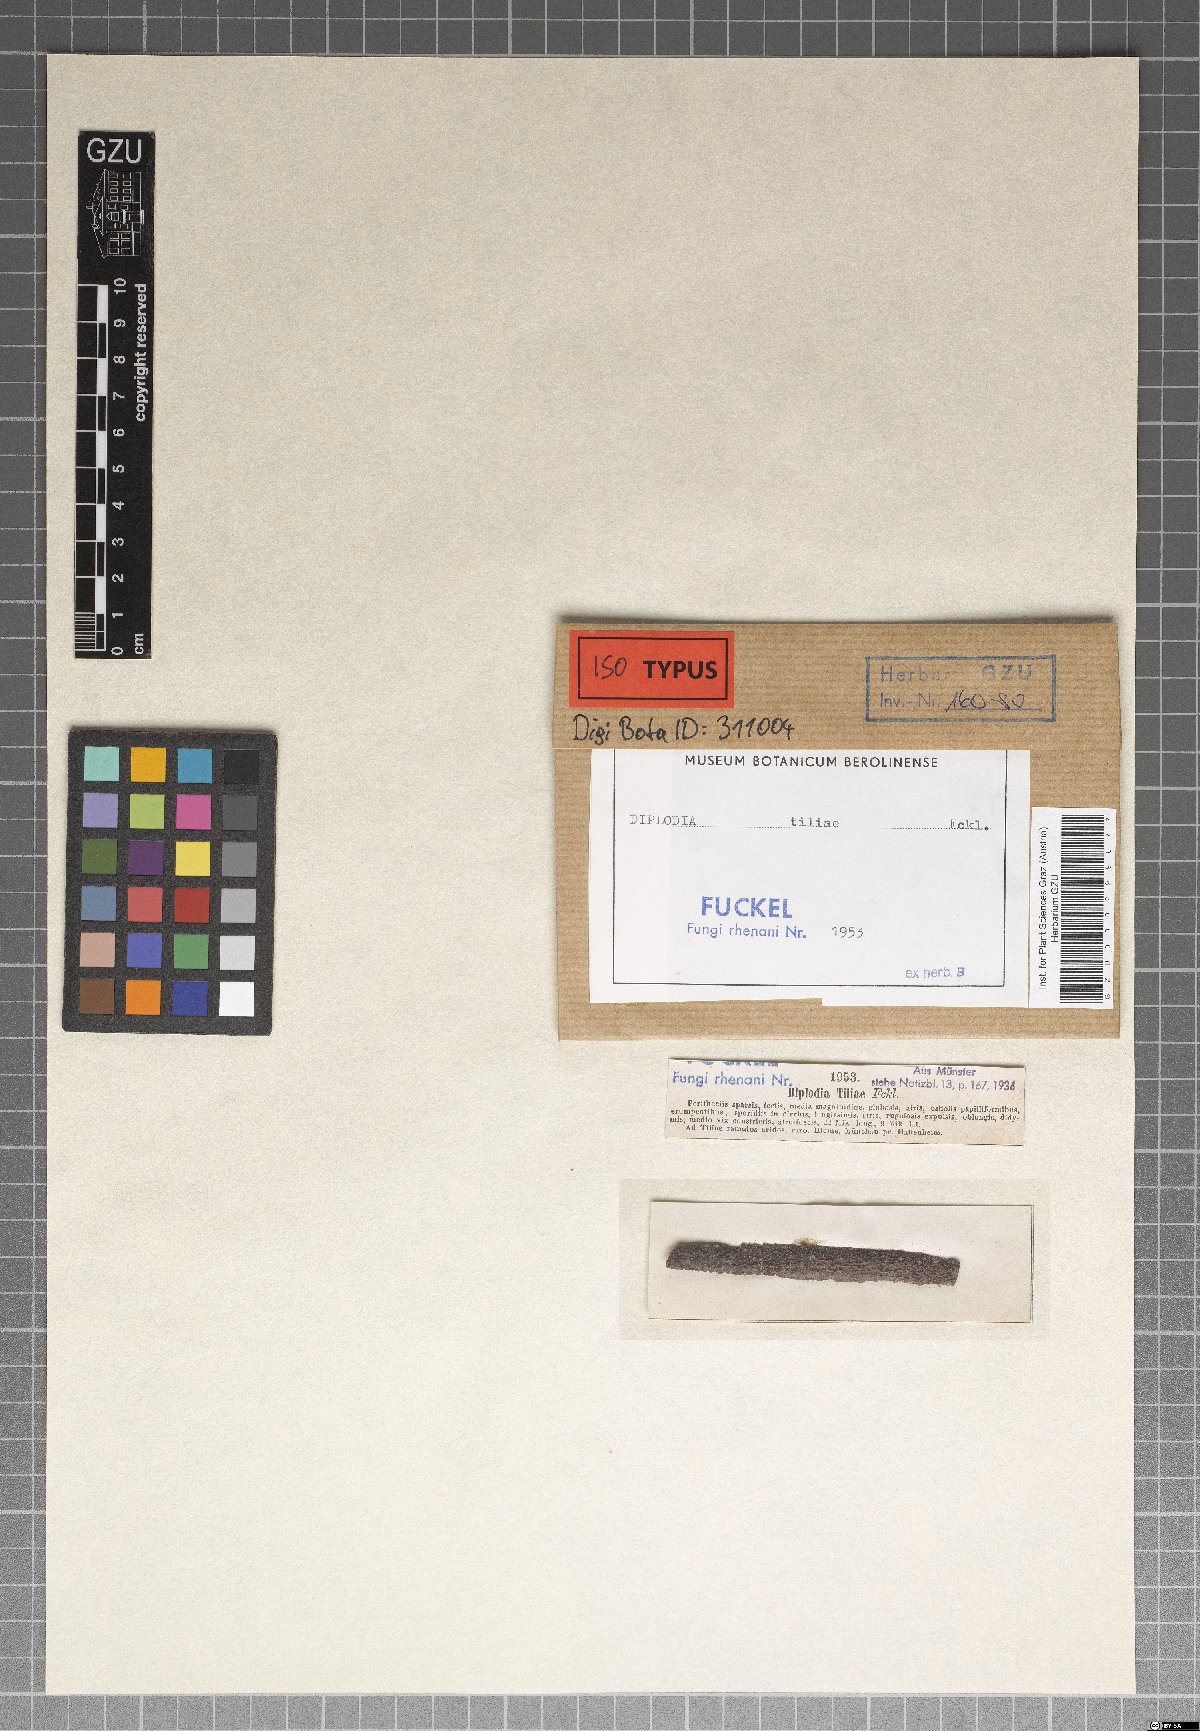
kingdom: Fungi
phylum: Ascomycota
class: Dothideomycetes
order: Botryosphaeriales
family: Botryosphaeriaceae
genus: Diplodia
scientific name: Diplodia tiliae
